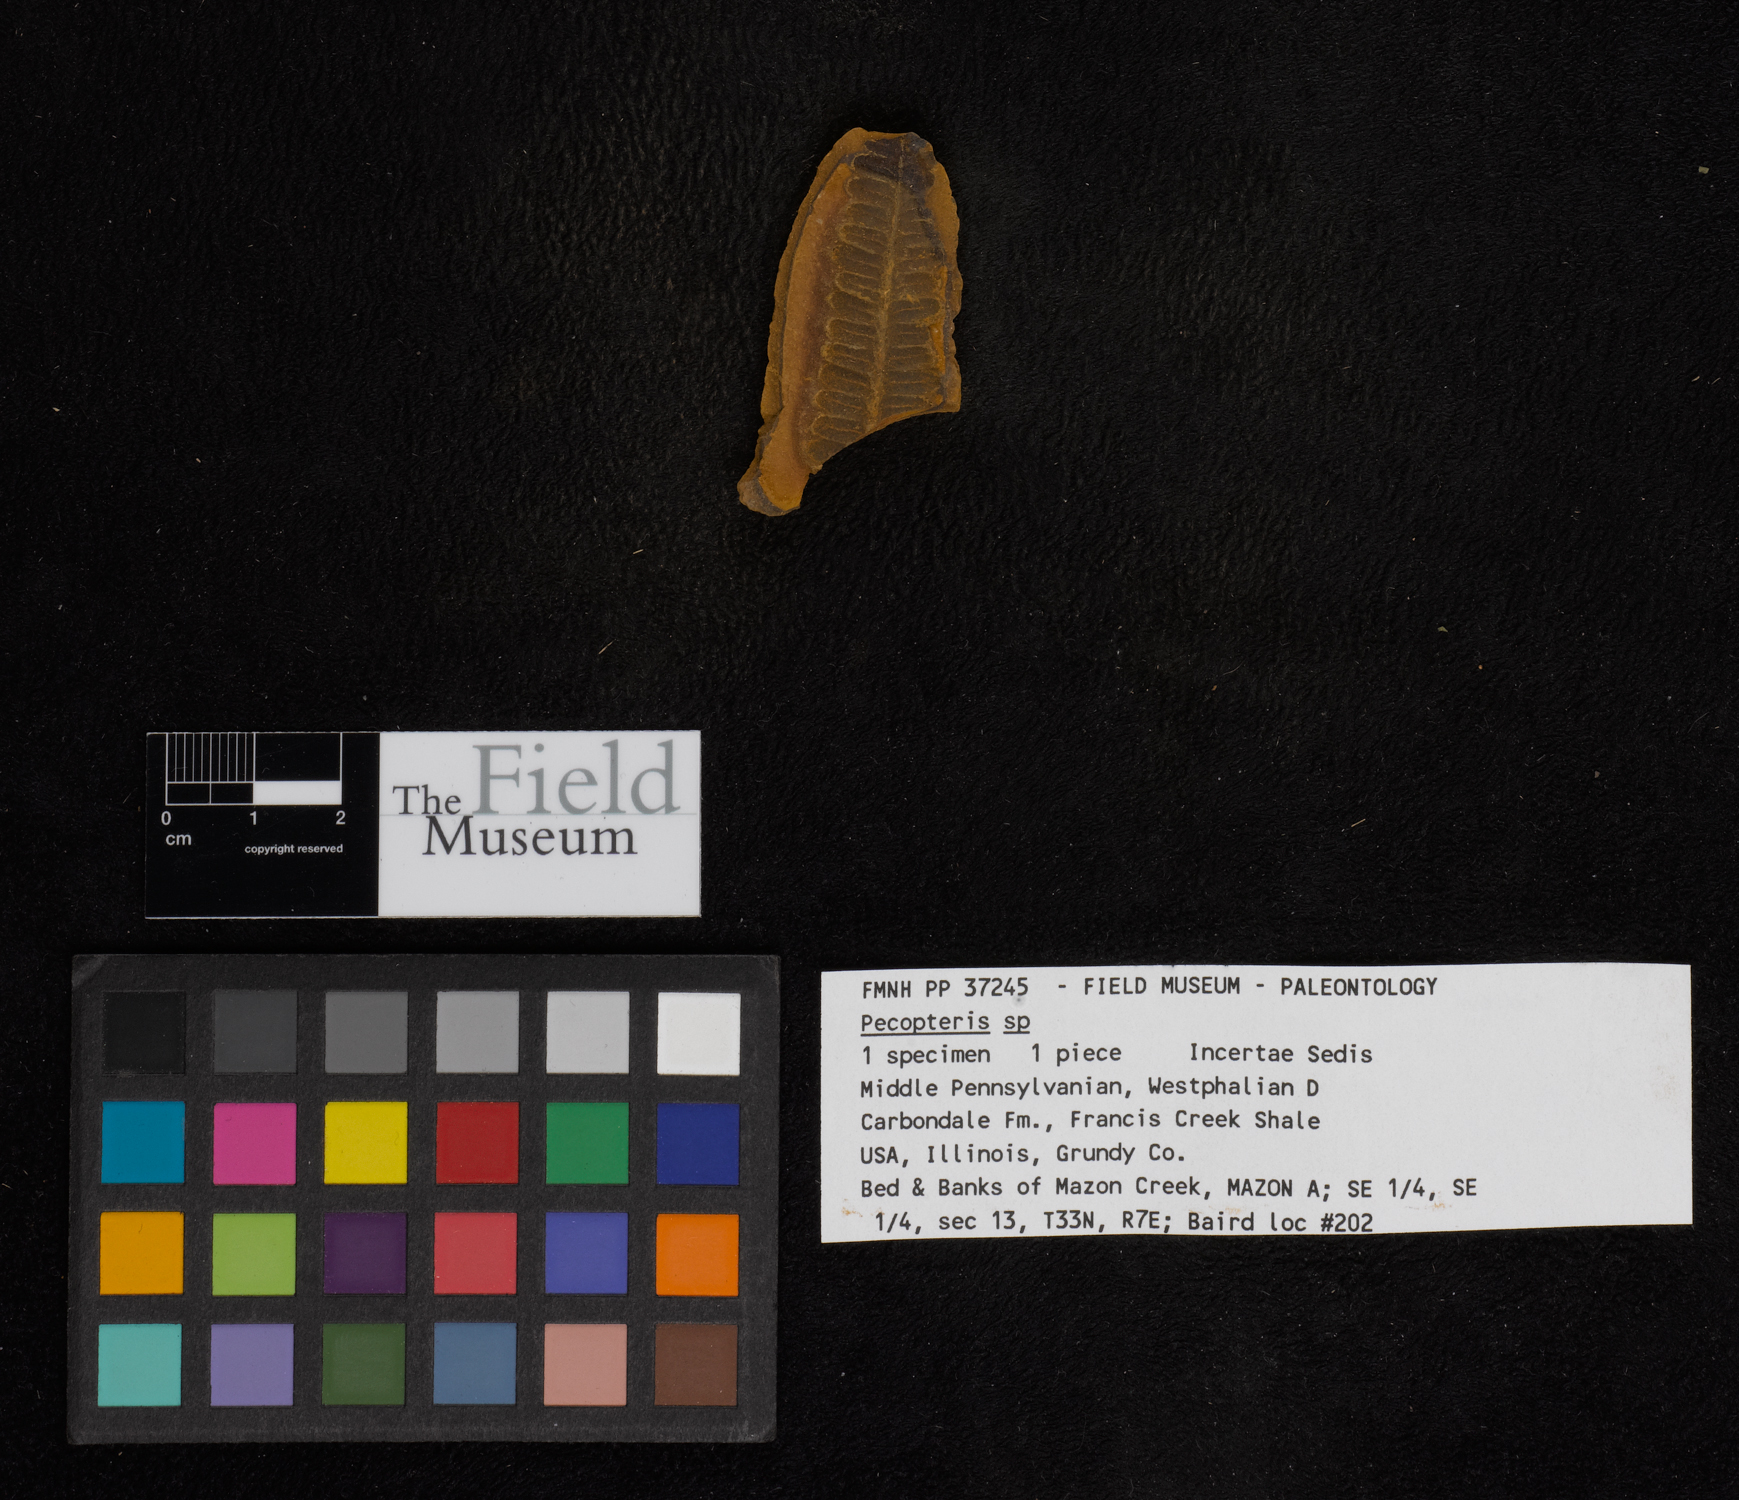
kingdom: Plantae
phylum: Tracheophyta
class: Polypodiopsida
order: Marattiales
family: Asterothecaceae
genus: Pecopteris
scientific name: Pecopteris
